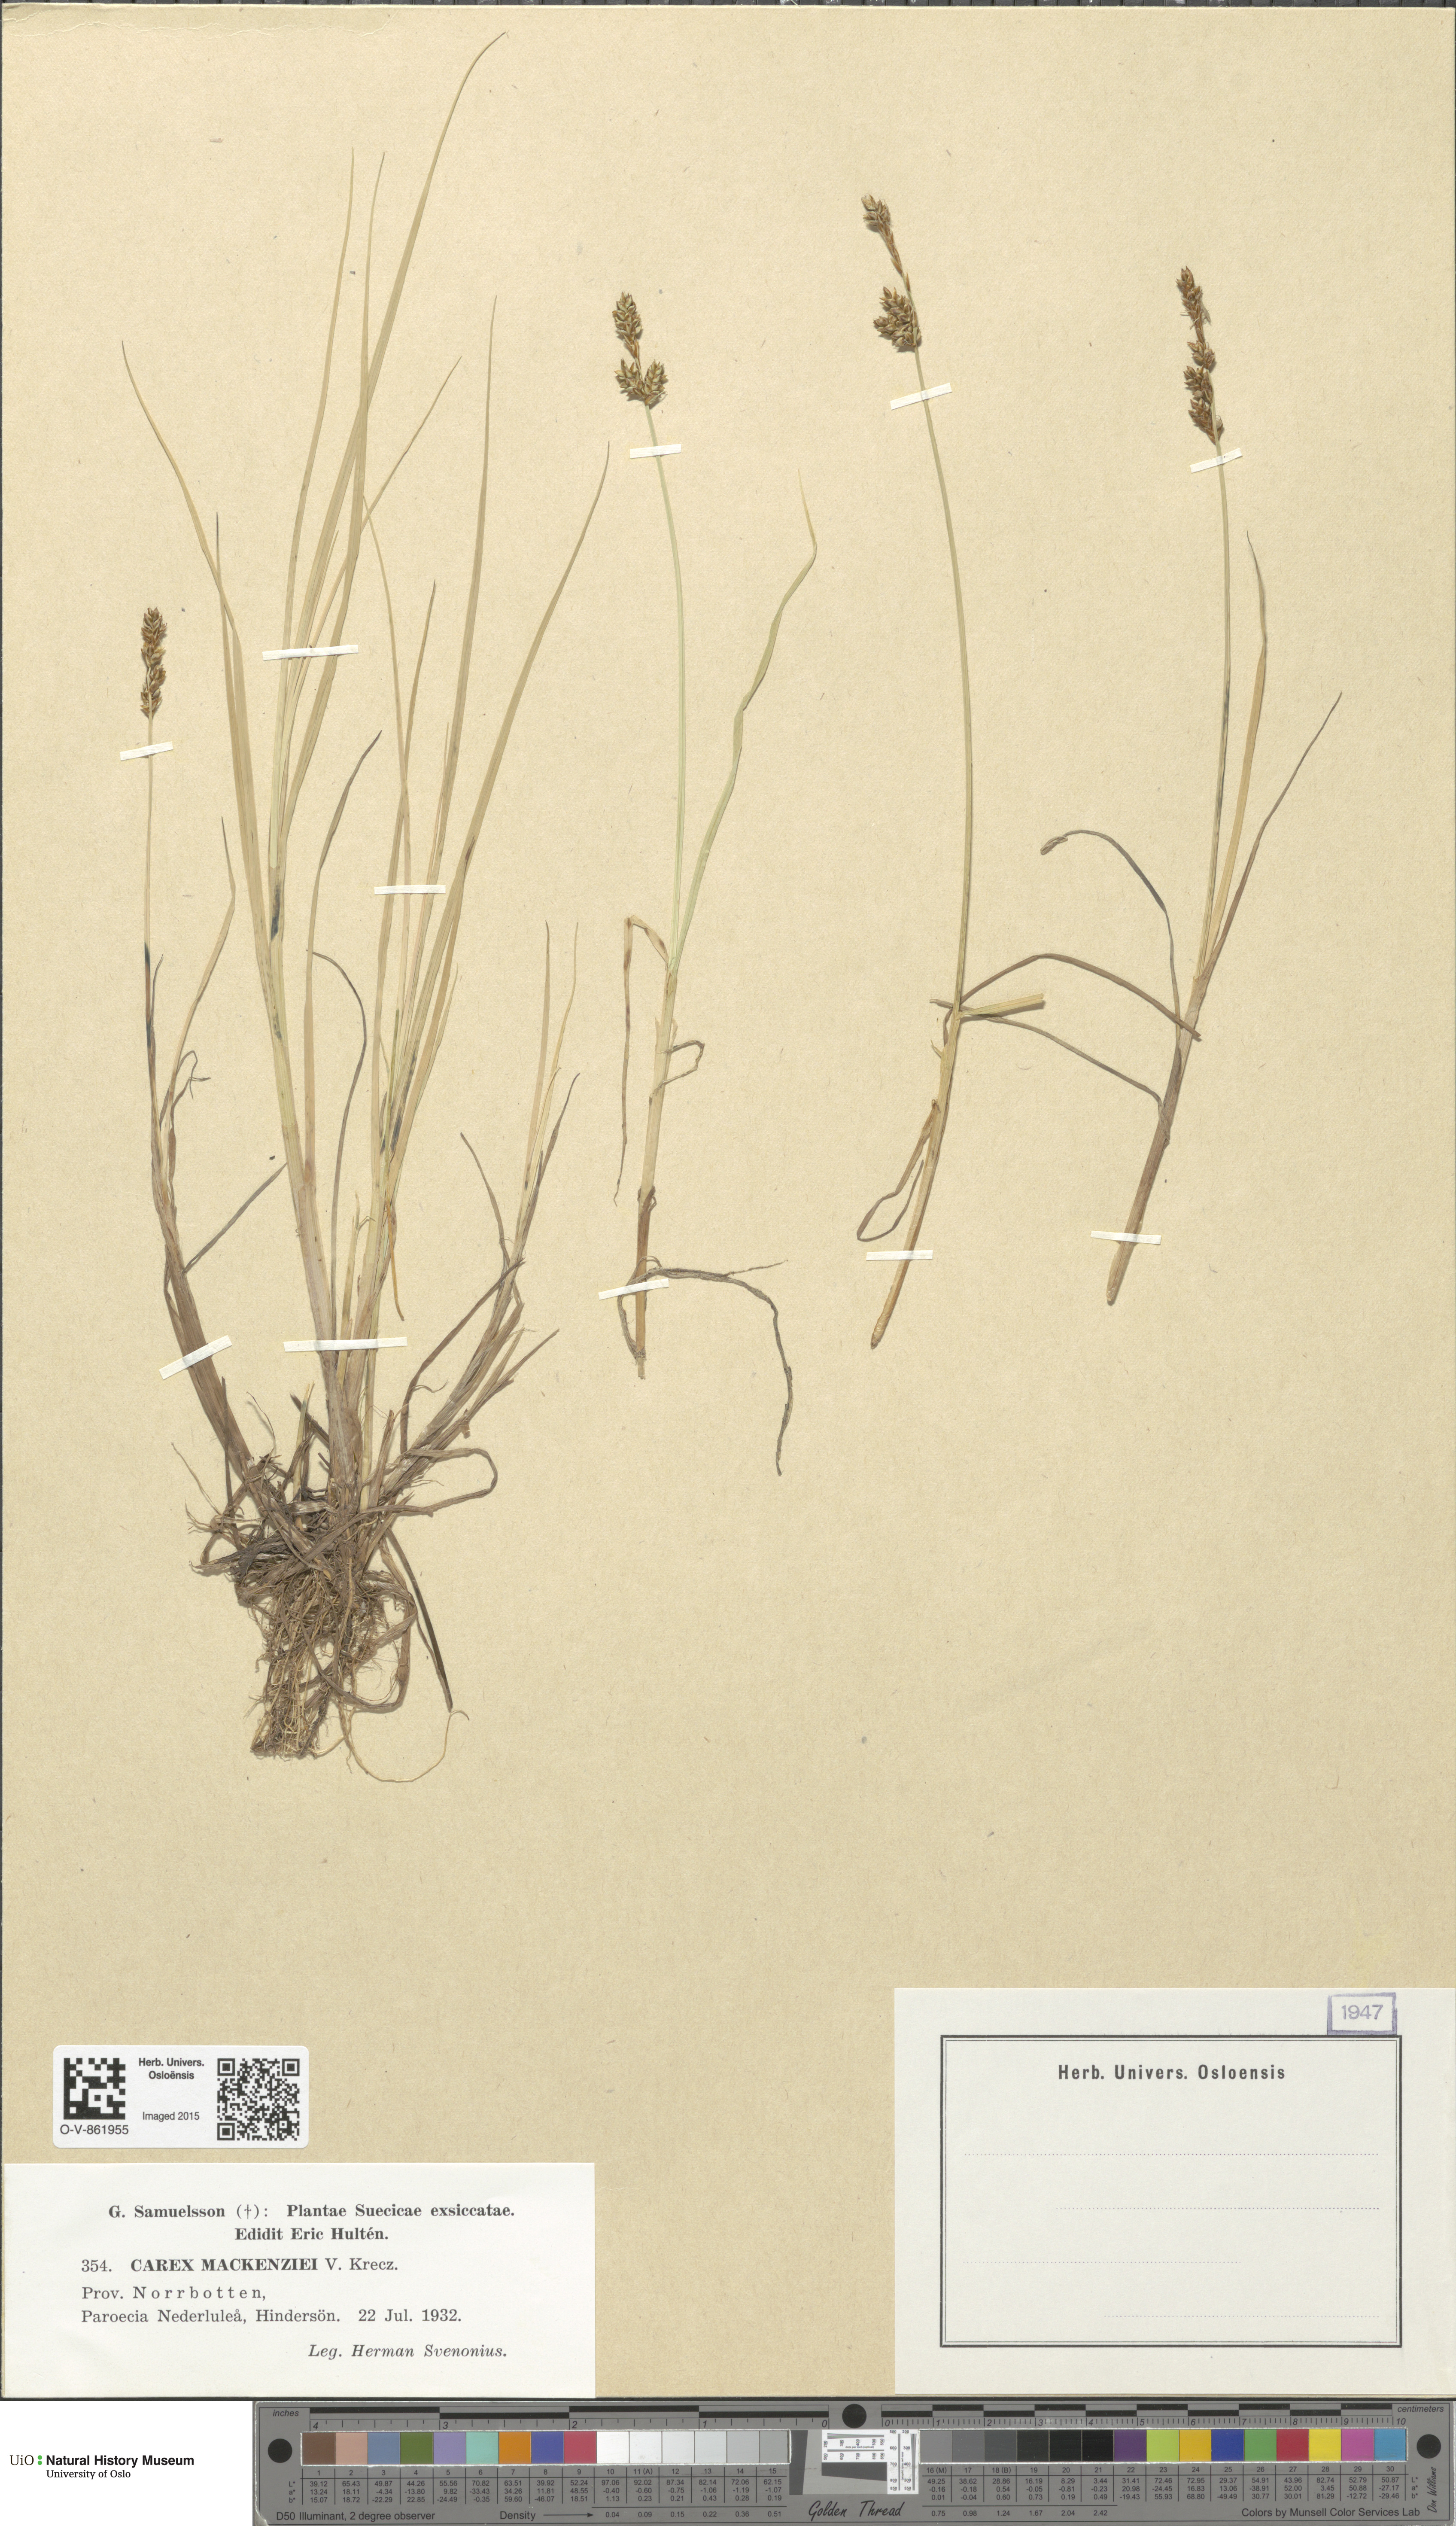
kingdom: Plantae
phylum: Tracheophyta
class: Liliopsida
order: Poales
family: Cyperaceae
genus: Carex
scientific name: Carex mackenziei
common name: Mackenzie's sedge
